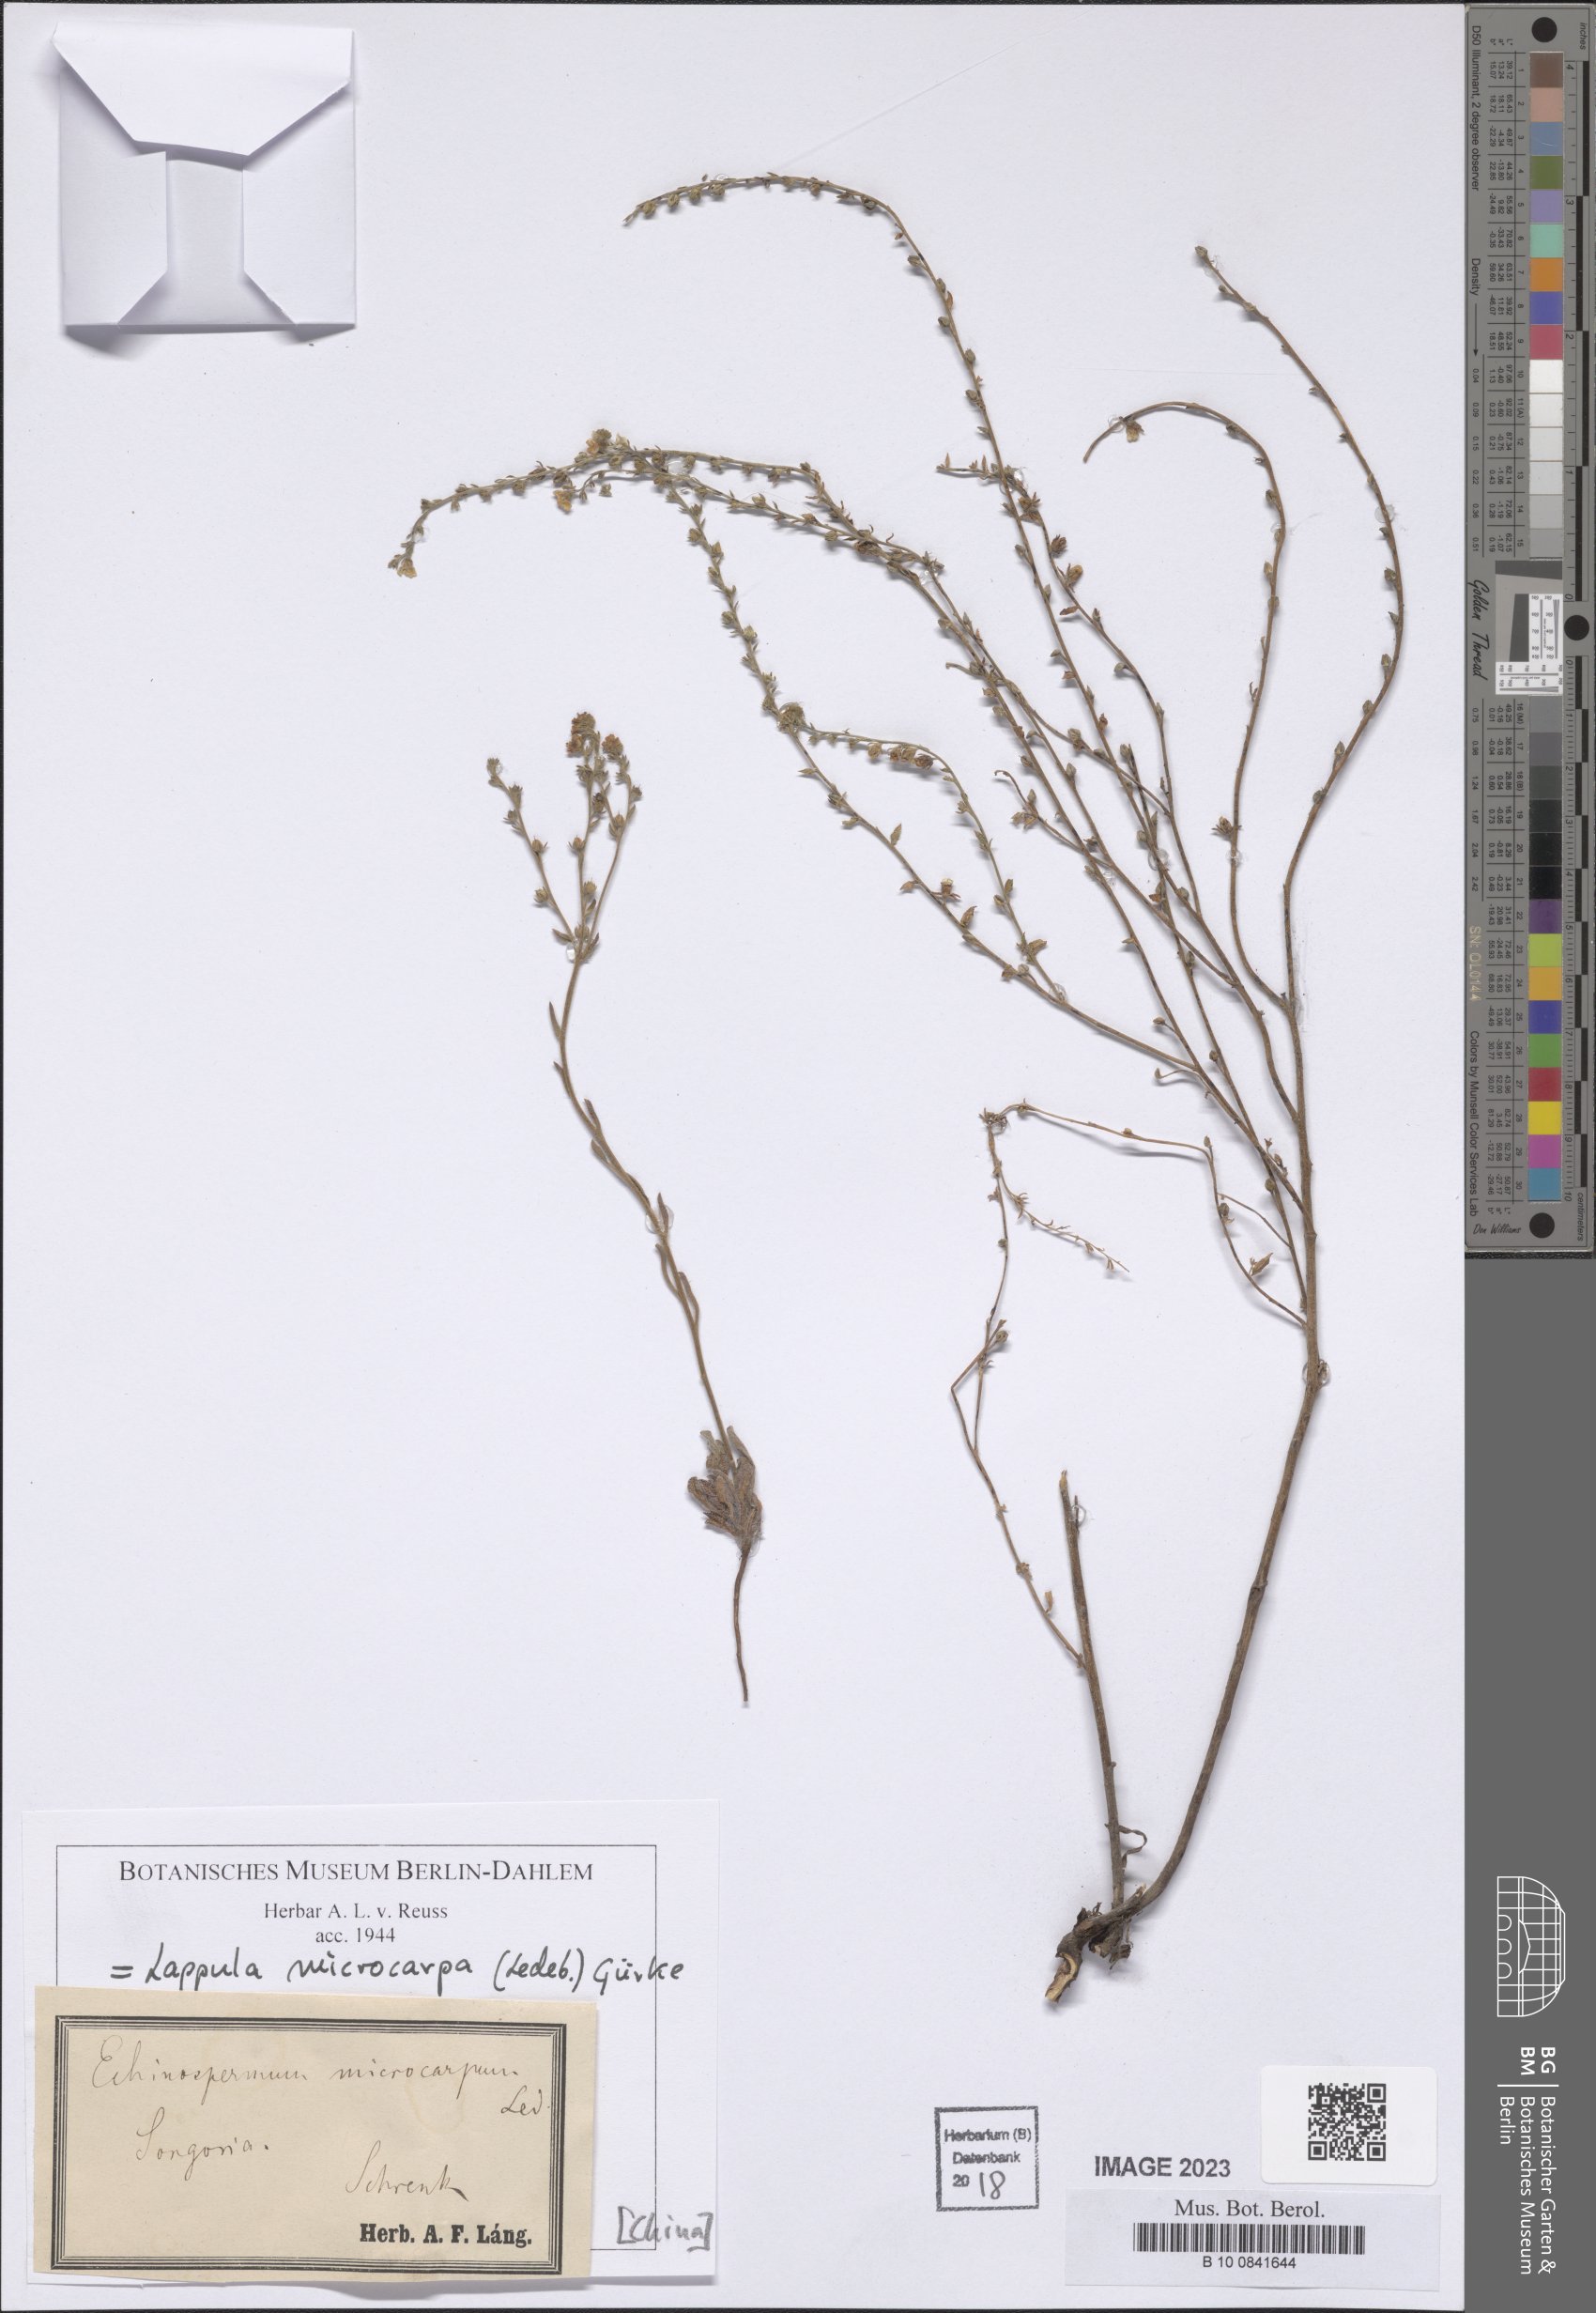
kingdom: Plantae
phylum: Tracheophyta
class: Magnoliopsida
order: Boraginales
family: Boraginaceae
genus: Lappula
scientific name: Lappula microcarpa
